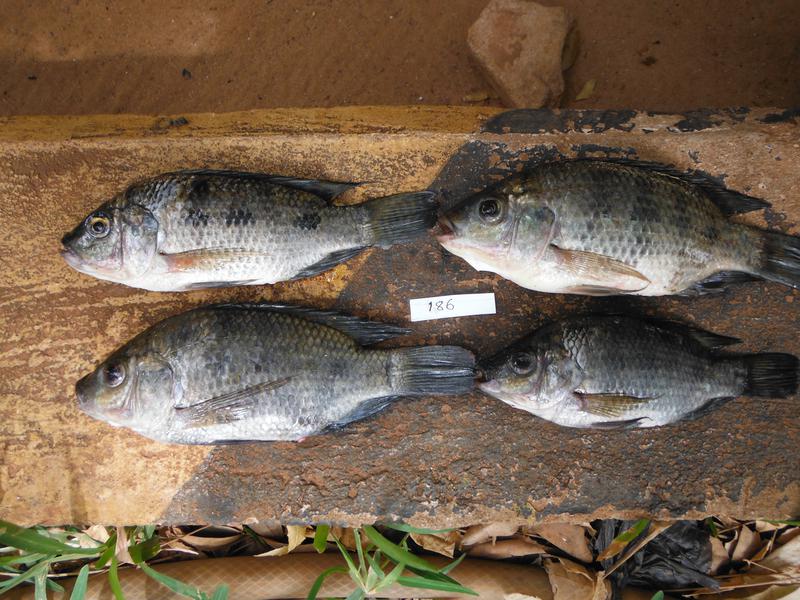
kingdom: Animalia
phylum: Chordata
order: Perciformes
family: Cichlidae
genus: Oreochromis
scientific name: Oreochromis urolepis
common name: Wami tilapia
